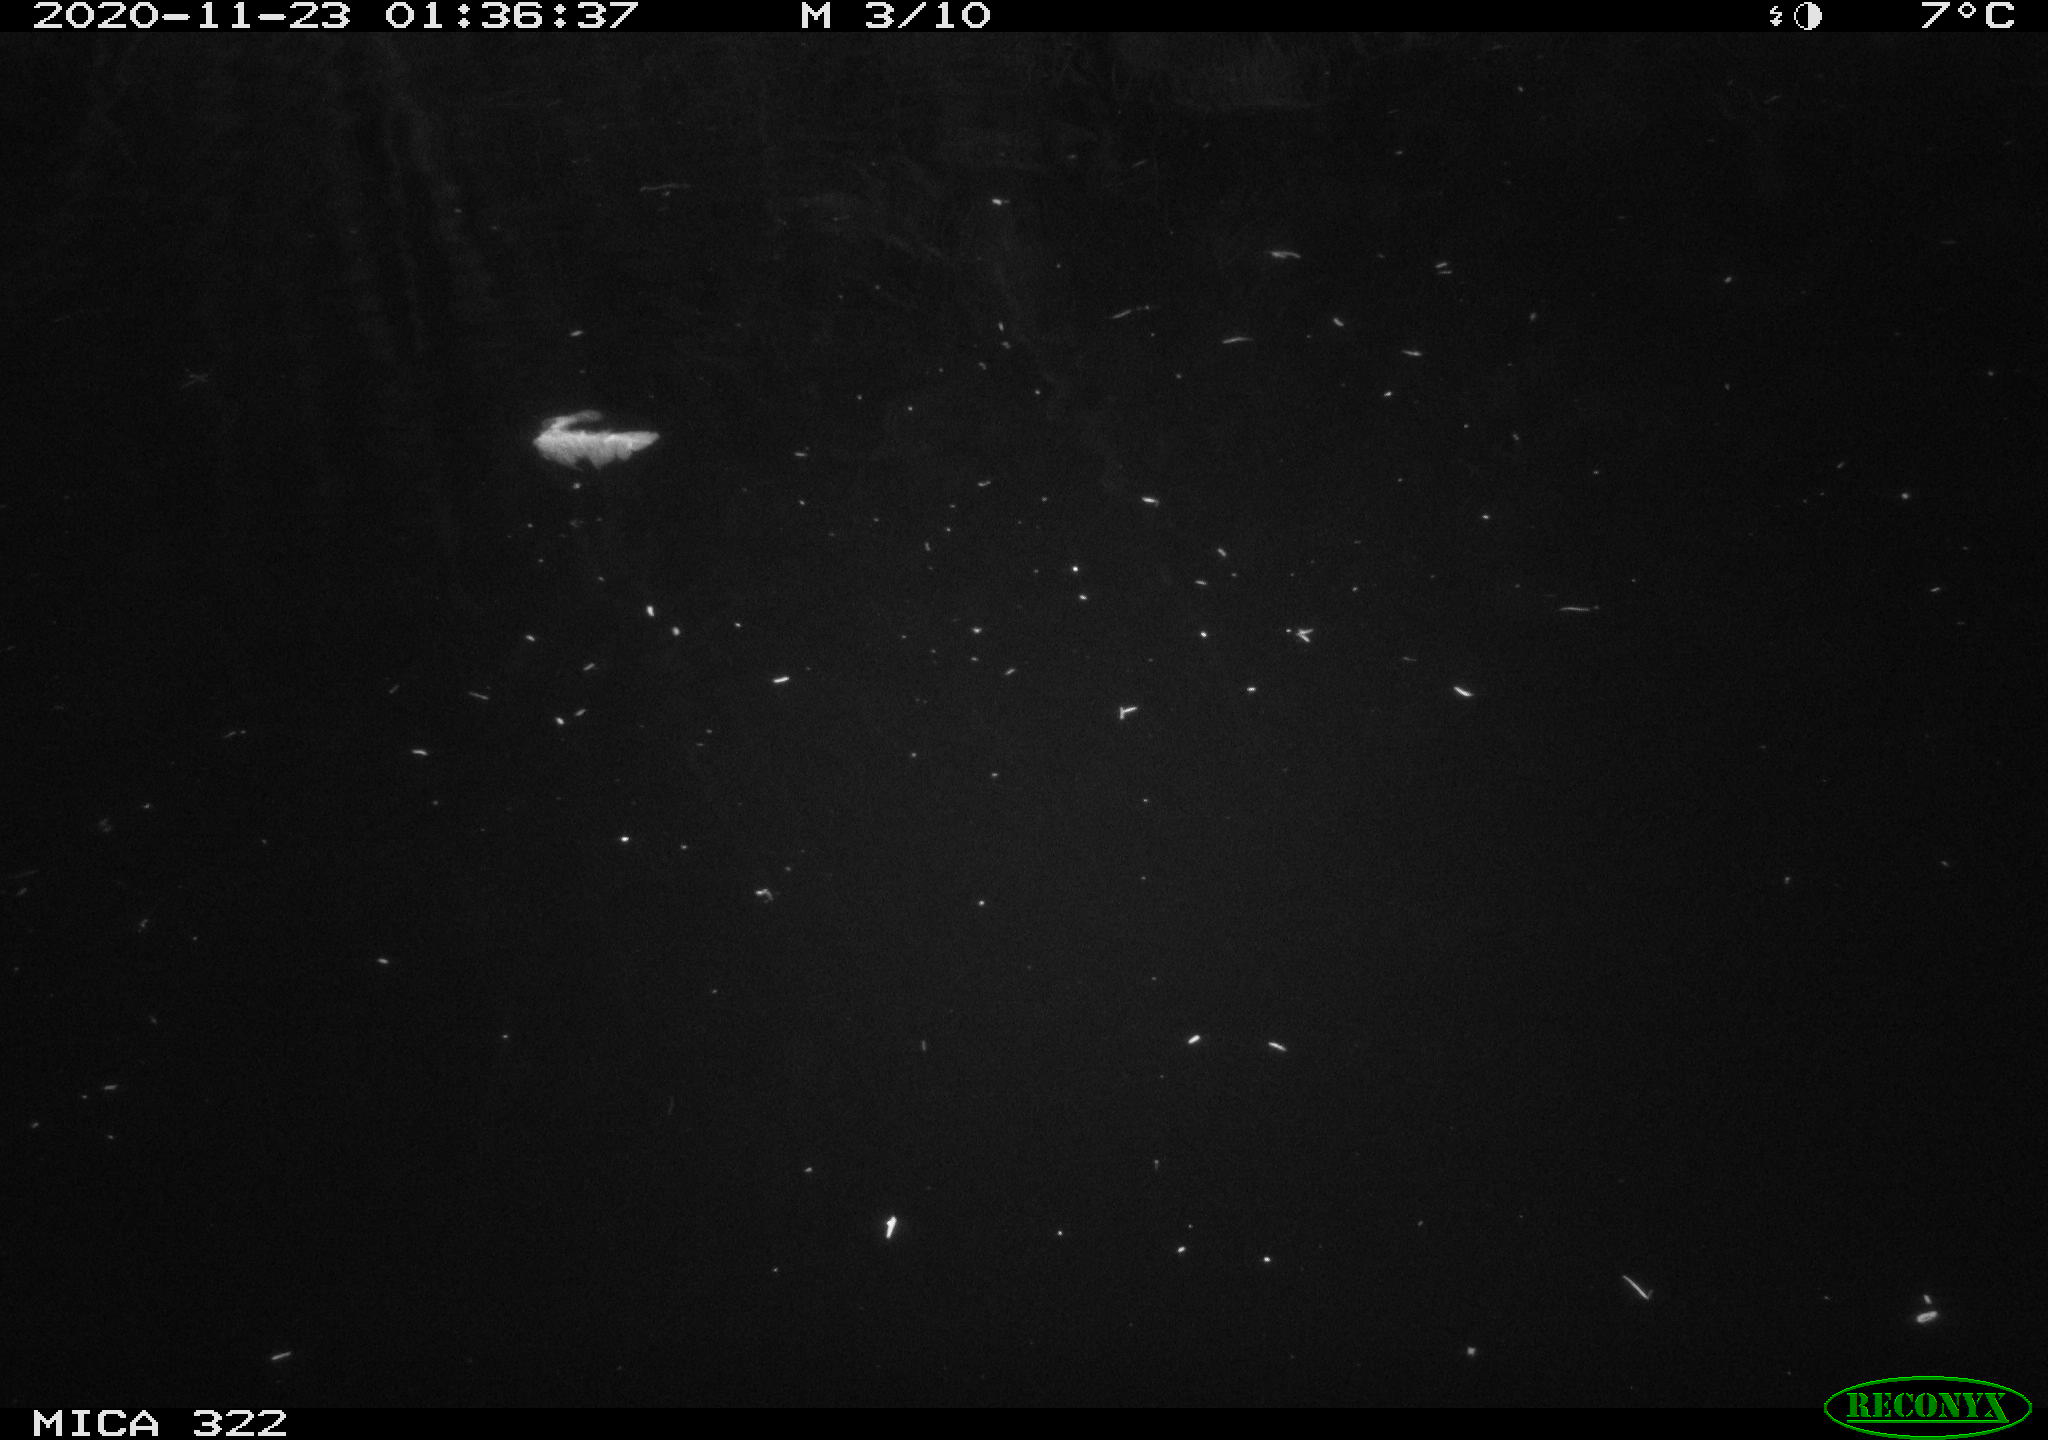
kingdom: Animalia
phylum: Chordata
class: Mammalia
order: Rodentia
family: Muridae
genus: Rattus
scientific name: Rattus norvegicus
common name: Brown rat
